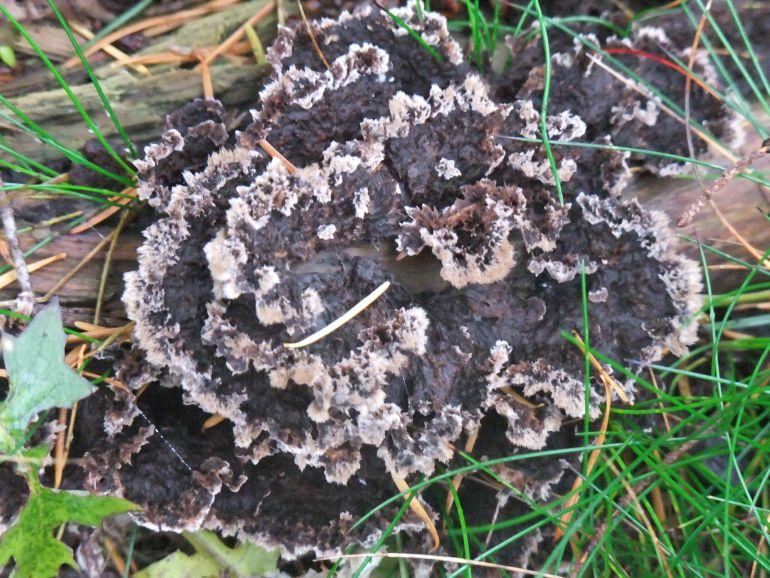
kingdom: Fungi
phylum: Basidiomycota
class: Agaricomycetes
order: Thelephorales
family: Thelephoraceae
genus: Thelephora
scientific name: Thelephora terrestris
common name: fliget frynsesvamp
